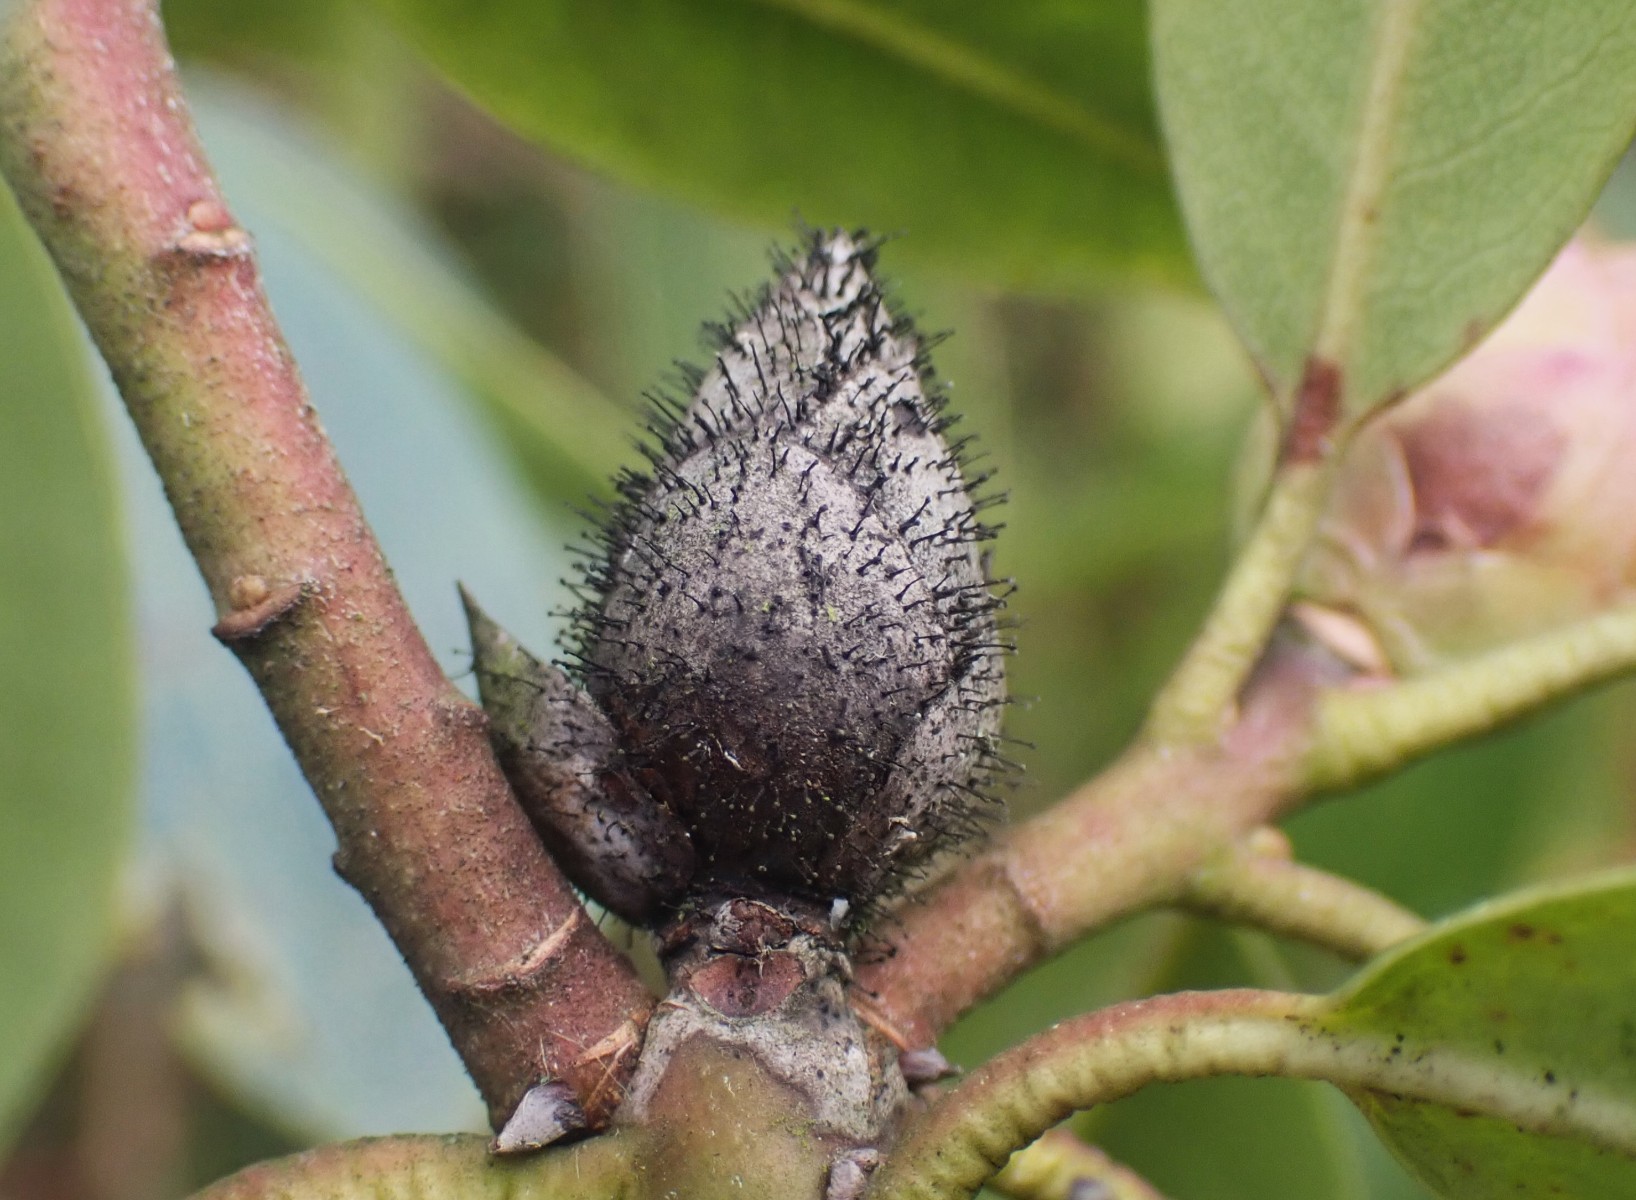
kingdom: Fungi
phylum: Ascomycota
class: Dothideomycetes
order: Pleosporales
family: Melanommataceae
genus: Seifertia
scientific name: Seifertia azaleae
